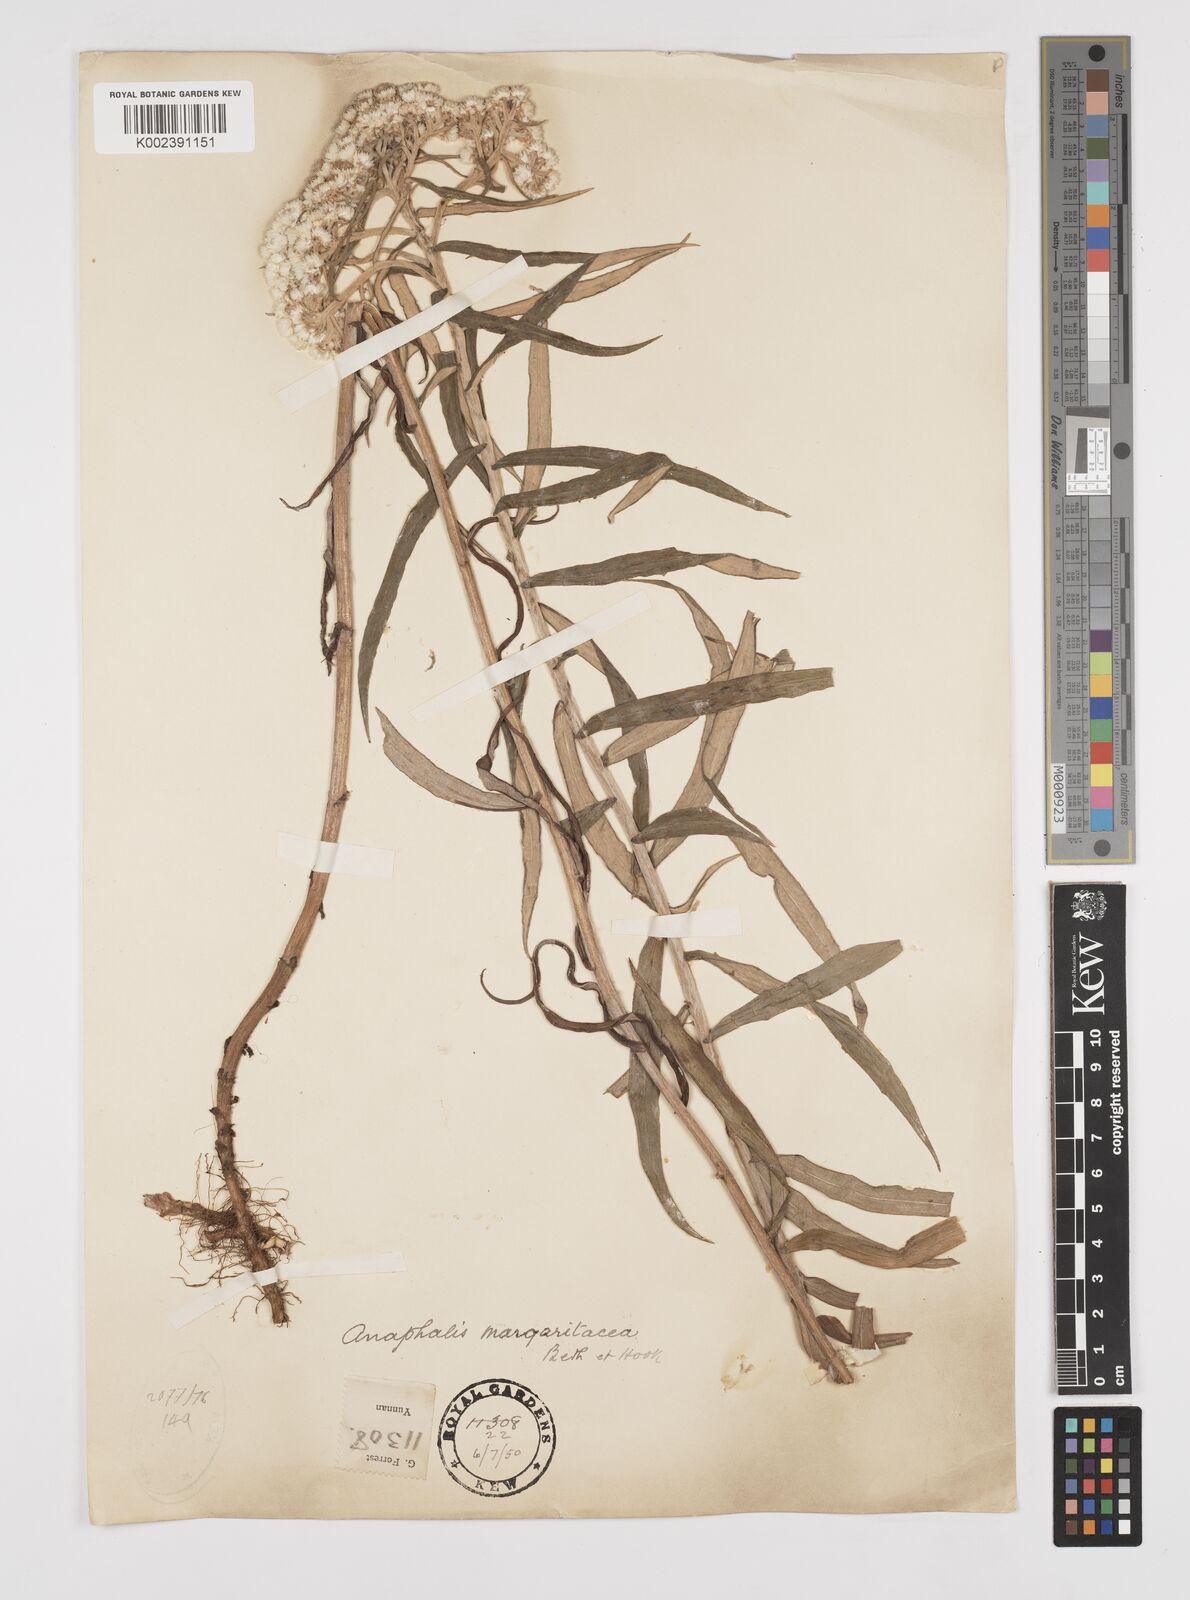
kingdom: Plantae
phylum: Tracheophyta
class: Magnoliopsida
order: Asterales
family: Asteraceae
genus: Anaphalis
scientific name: Anaphalis margaritacea
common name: Pearly everlasting
